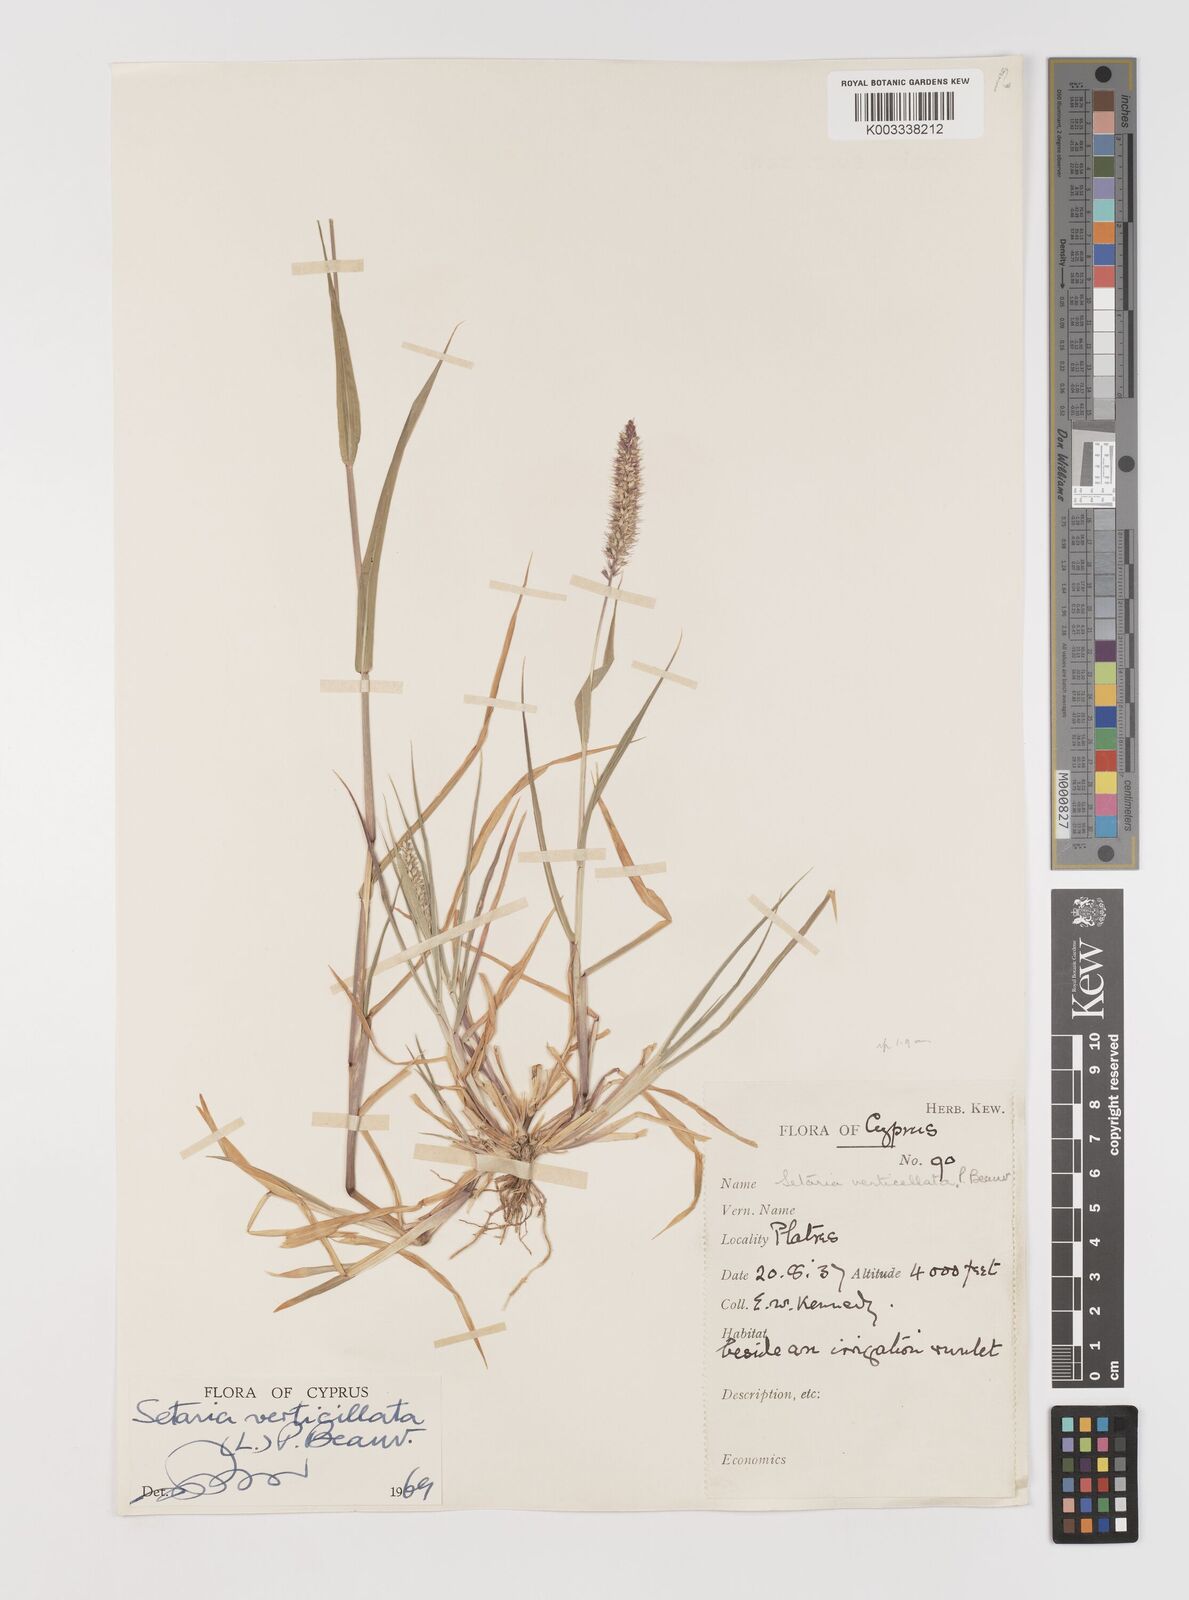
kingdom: Plantae
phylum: Tracheophyta
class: Liliopsida
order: Poales
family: Poaceae
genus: Setaria
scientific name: Setaria verticillata
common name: Hooked bristlegrass
